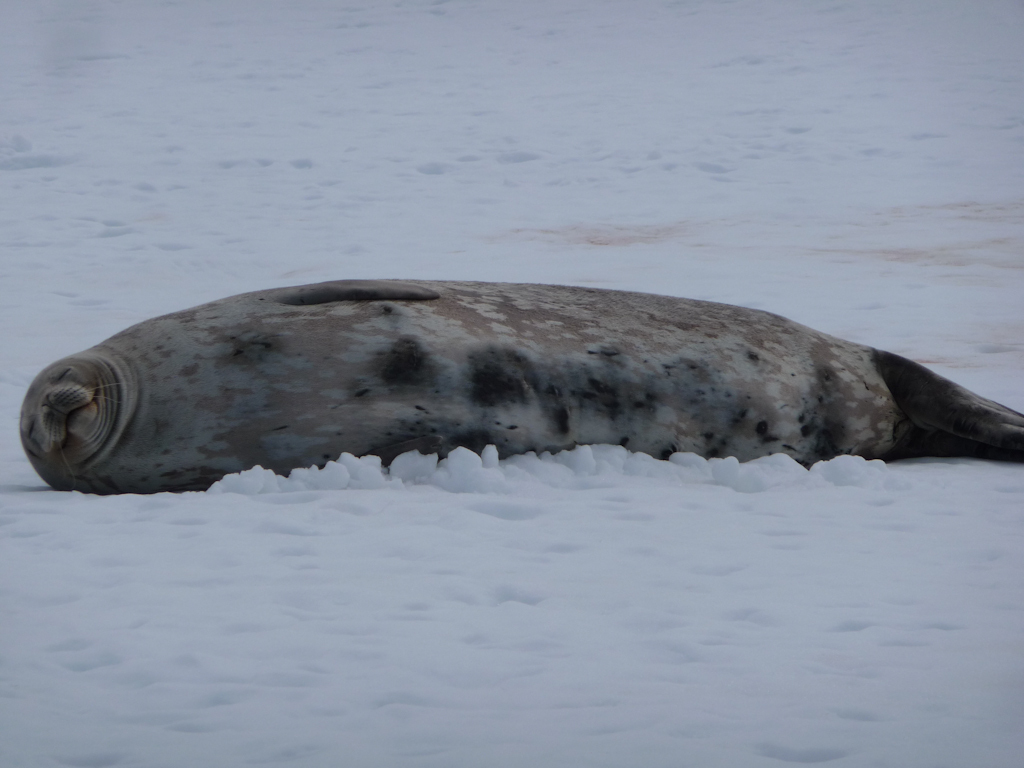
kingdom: Animalia
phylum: Chordata
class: Mammalia
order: Carnivora
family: Phocidae
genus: Leptonychotes
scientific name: Leptonychotes weddellii
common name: Weddell Seal
